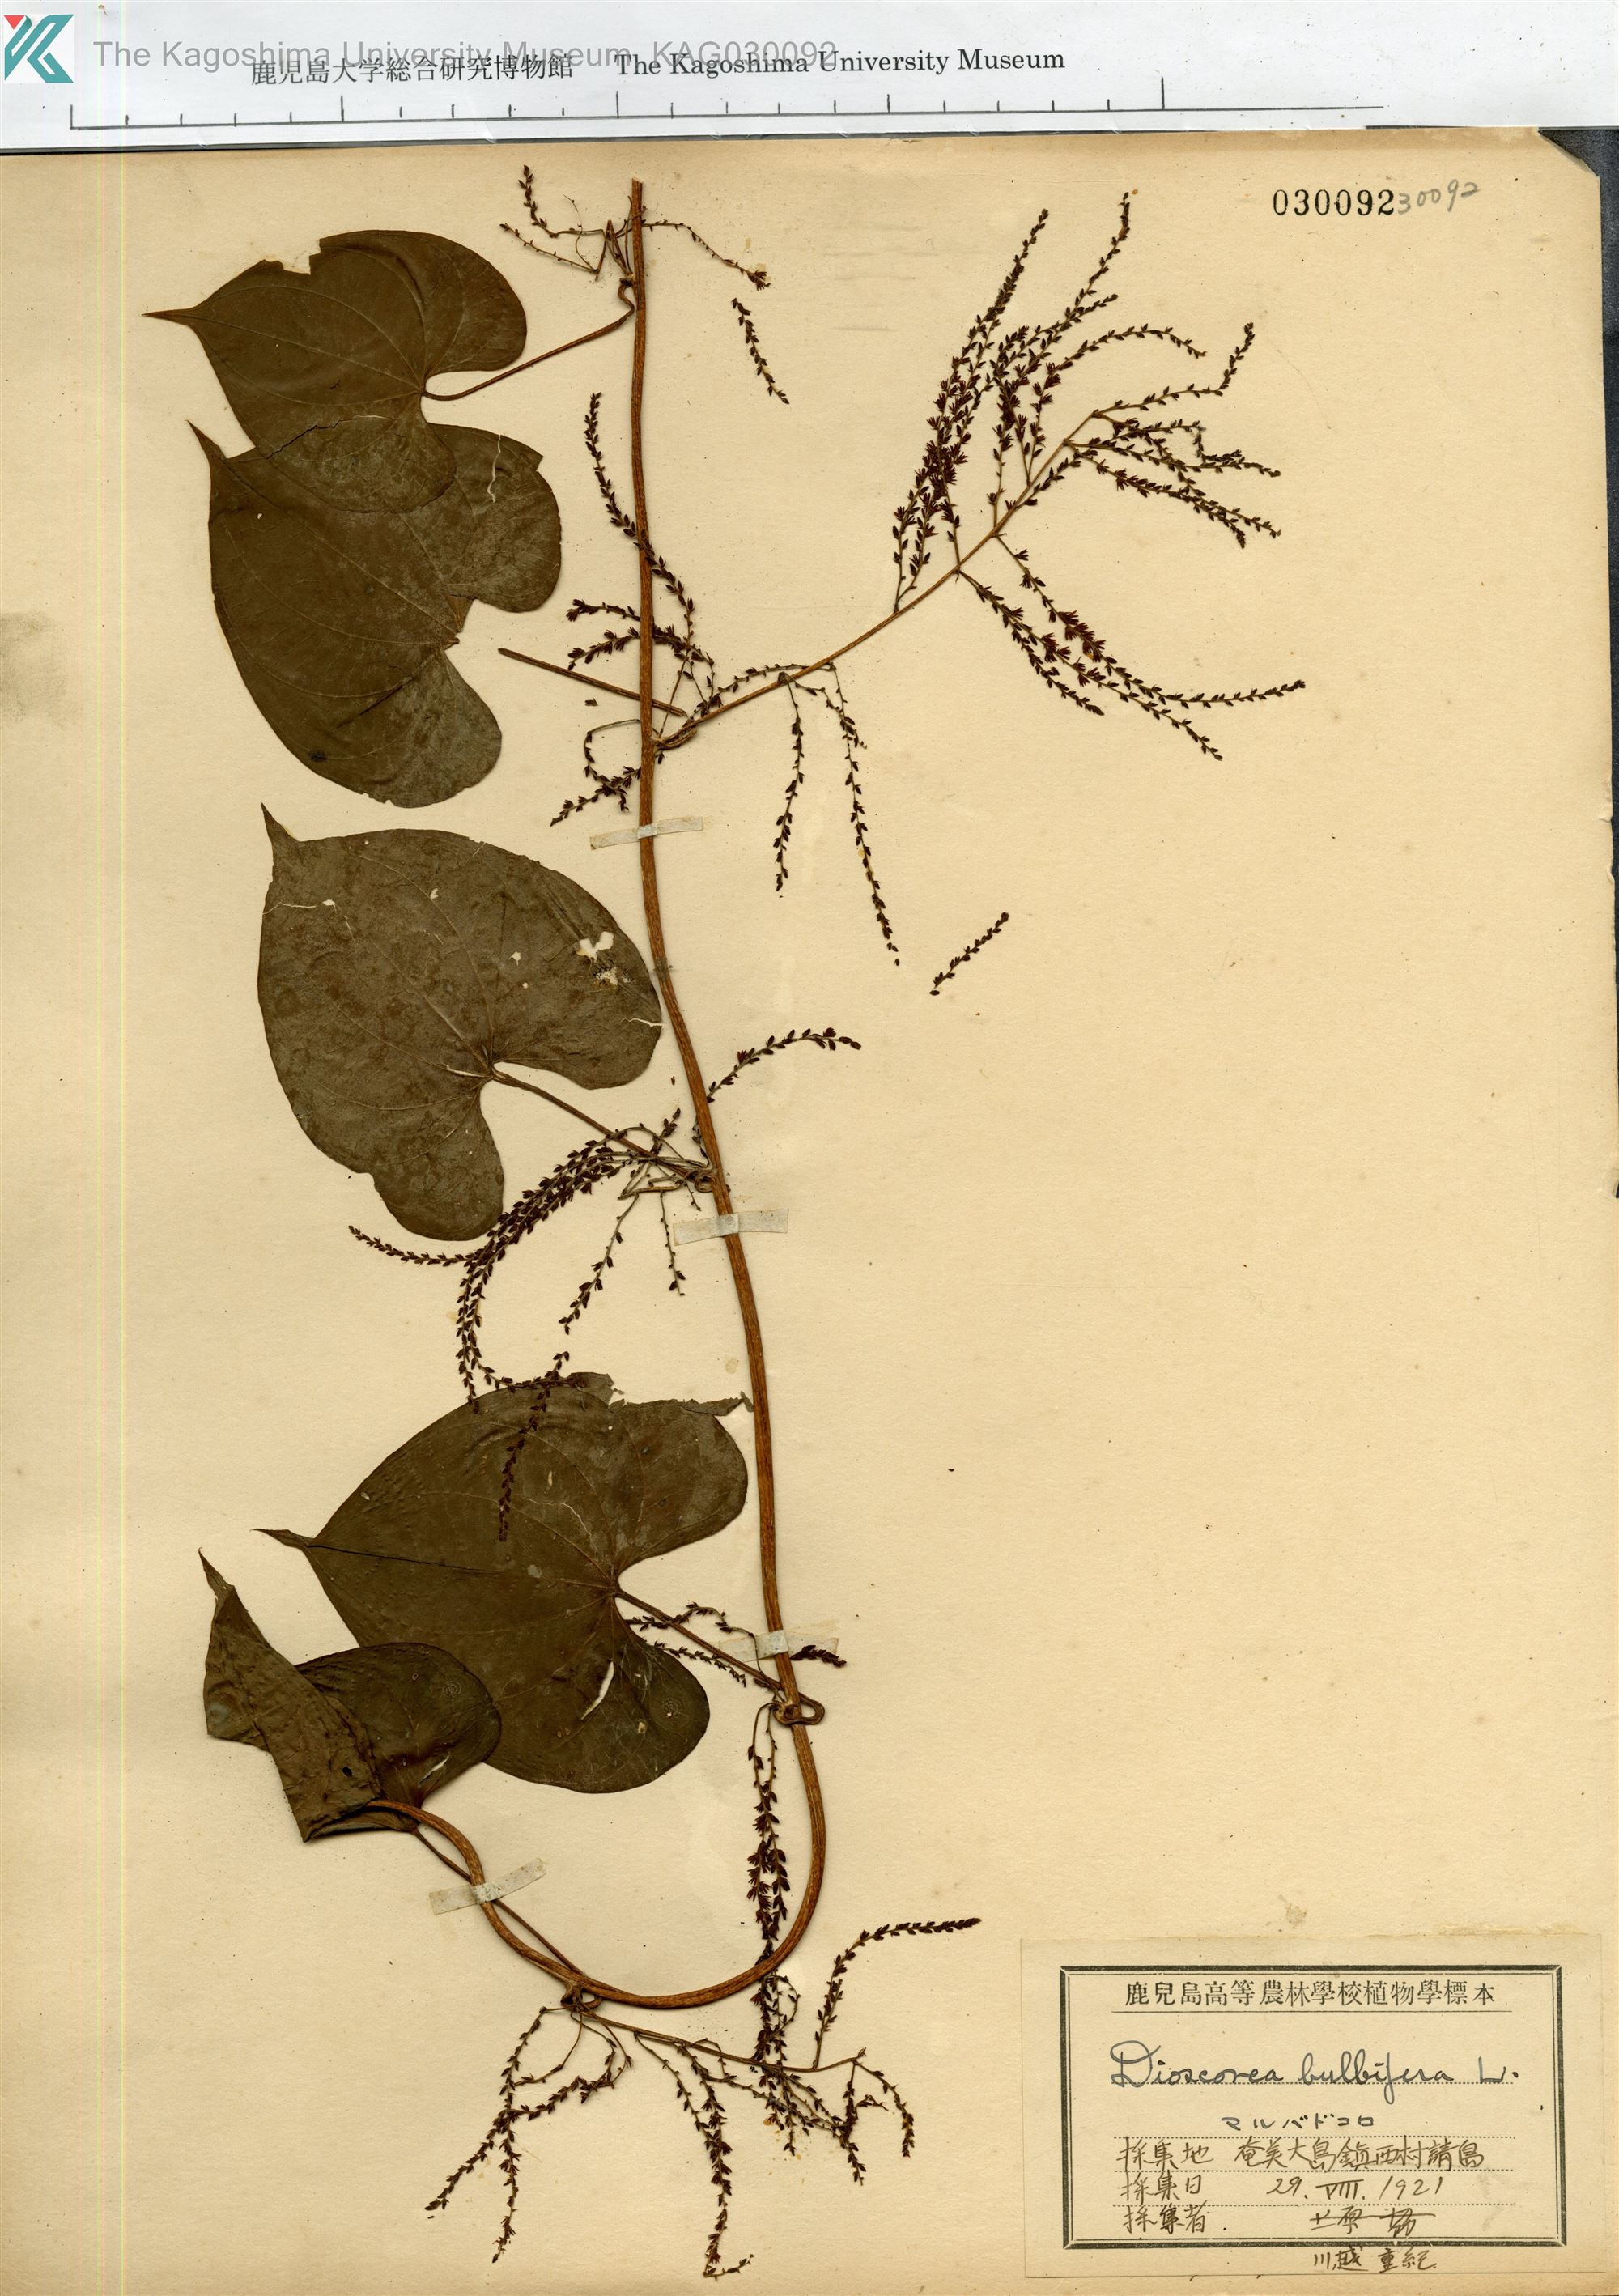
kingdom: Plantae
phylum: Tracheophyta
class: Liliopsida
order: Dioscoreales
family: Dioscoreaceae
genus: Dioscorea
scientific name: Dioscorea bulbifera
